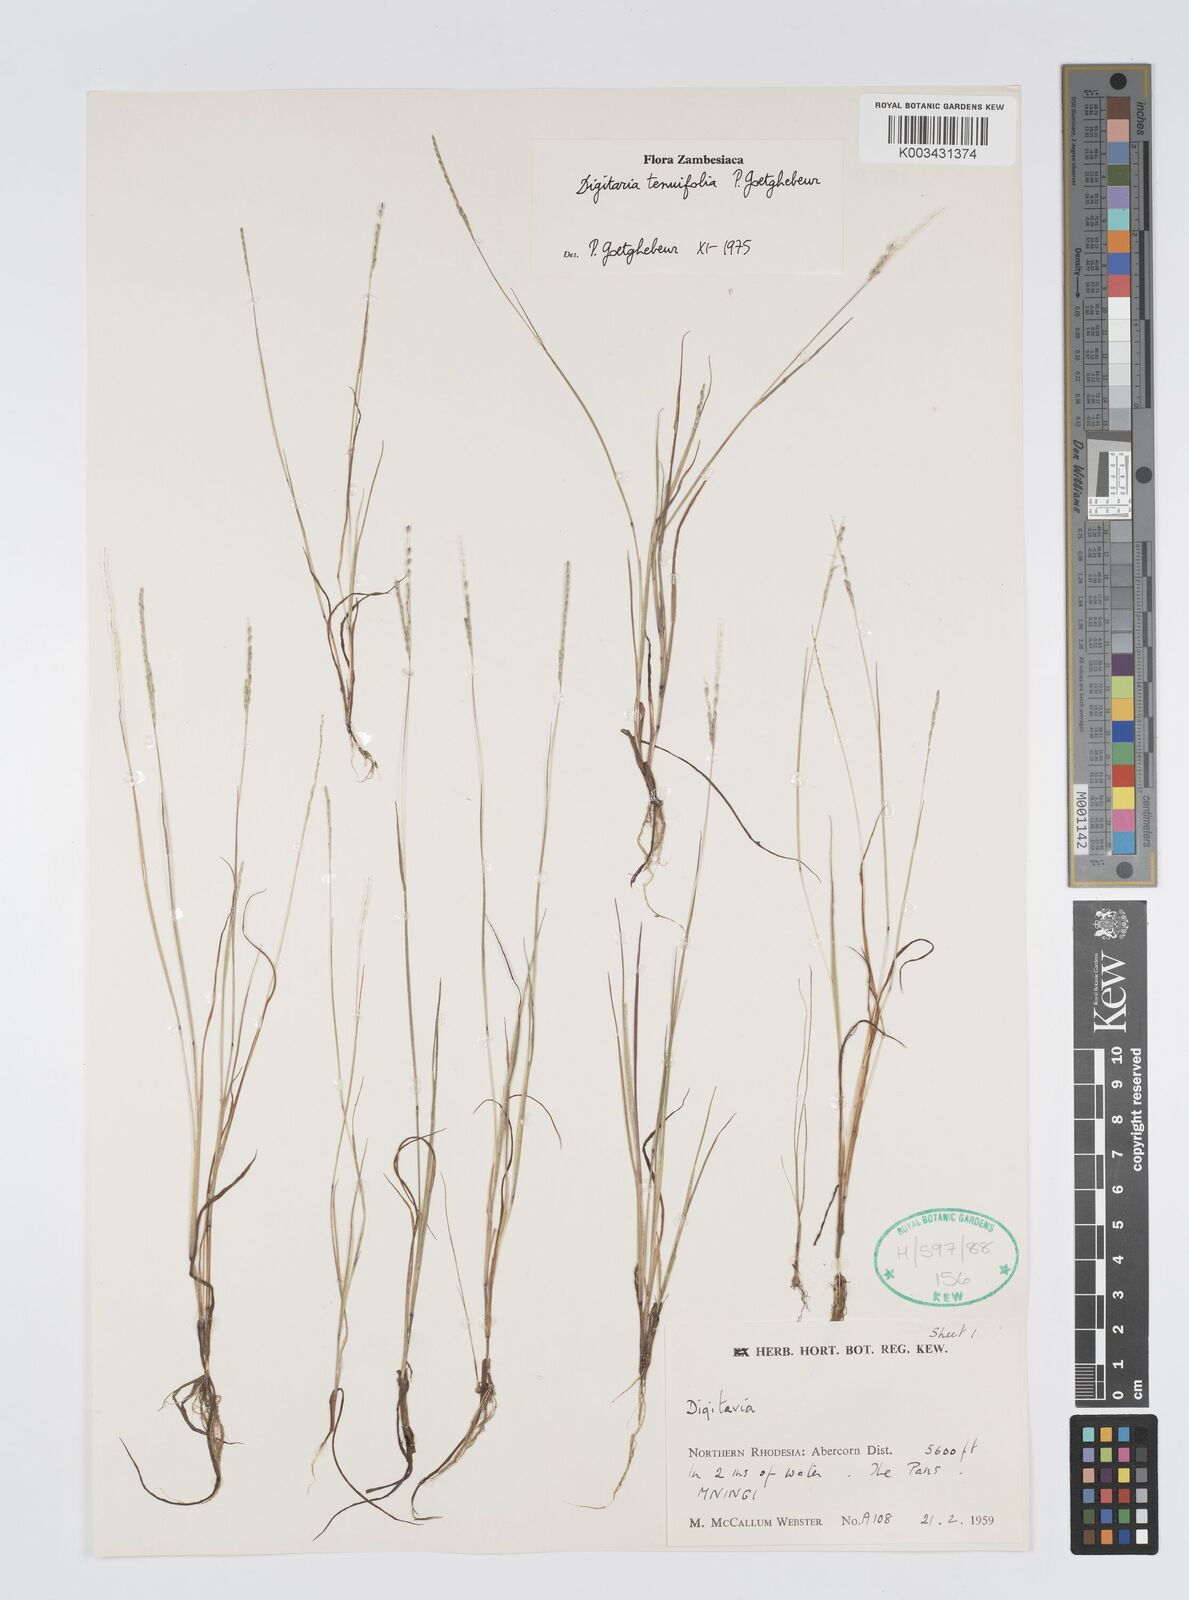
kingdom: Plantae
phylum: Tracheophyta
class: Liliopsida
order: Poales
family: Poaceae
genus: Digitaria
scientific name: Digitaria tenuifolia
